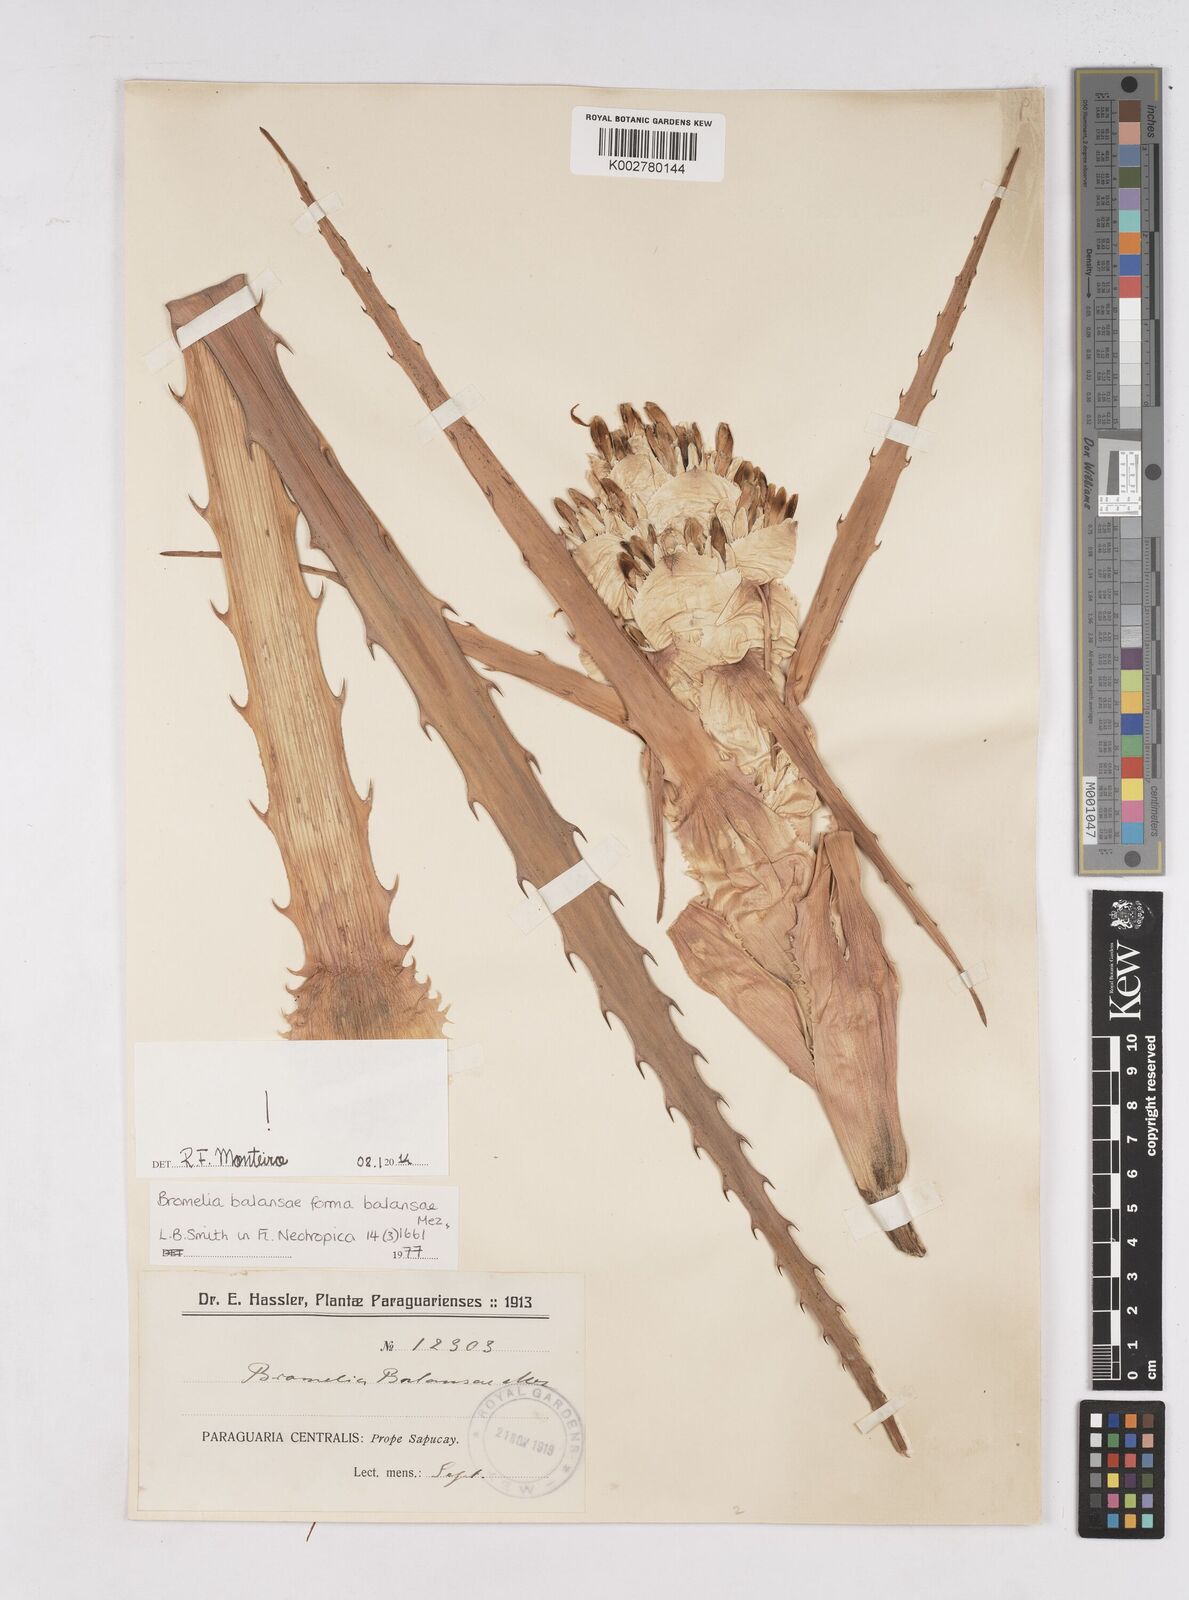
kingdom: Plantae
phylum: Tracheophyta
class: Liliopsida
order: Poales
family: Bromeliaceae
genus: Bromelia
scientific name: Bromelia balansae
